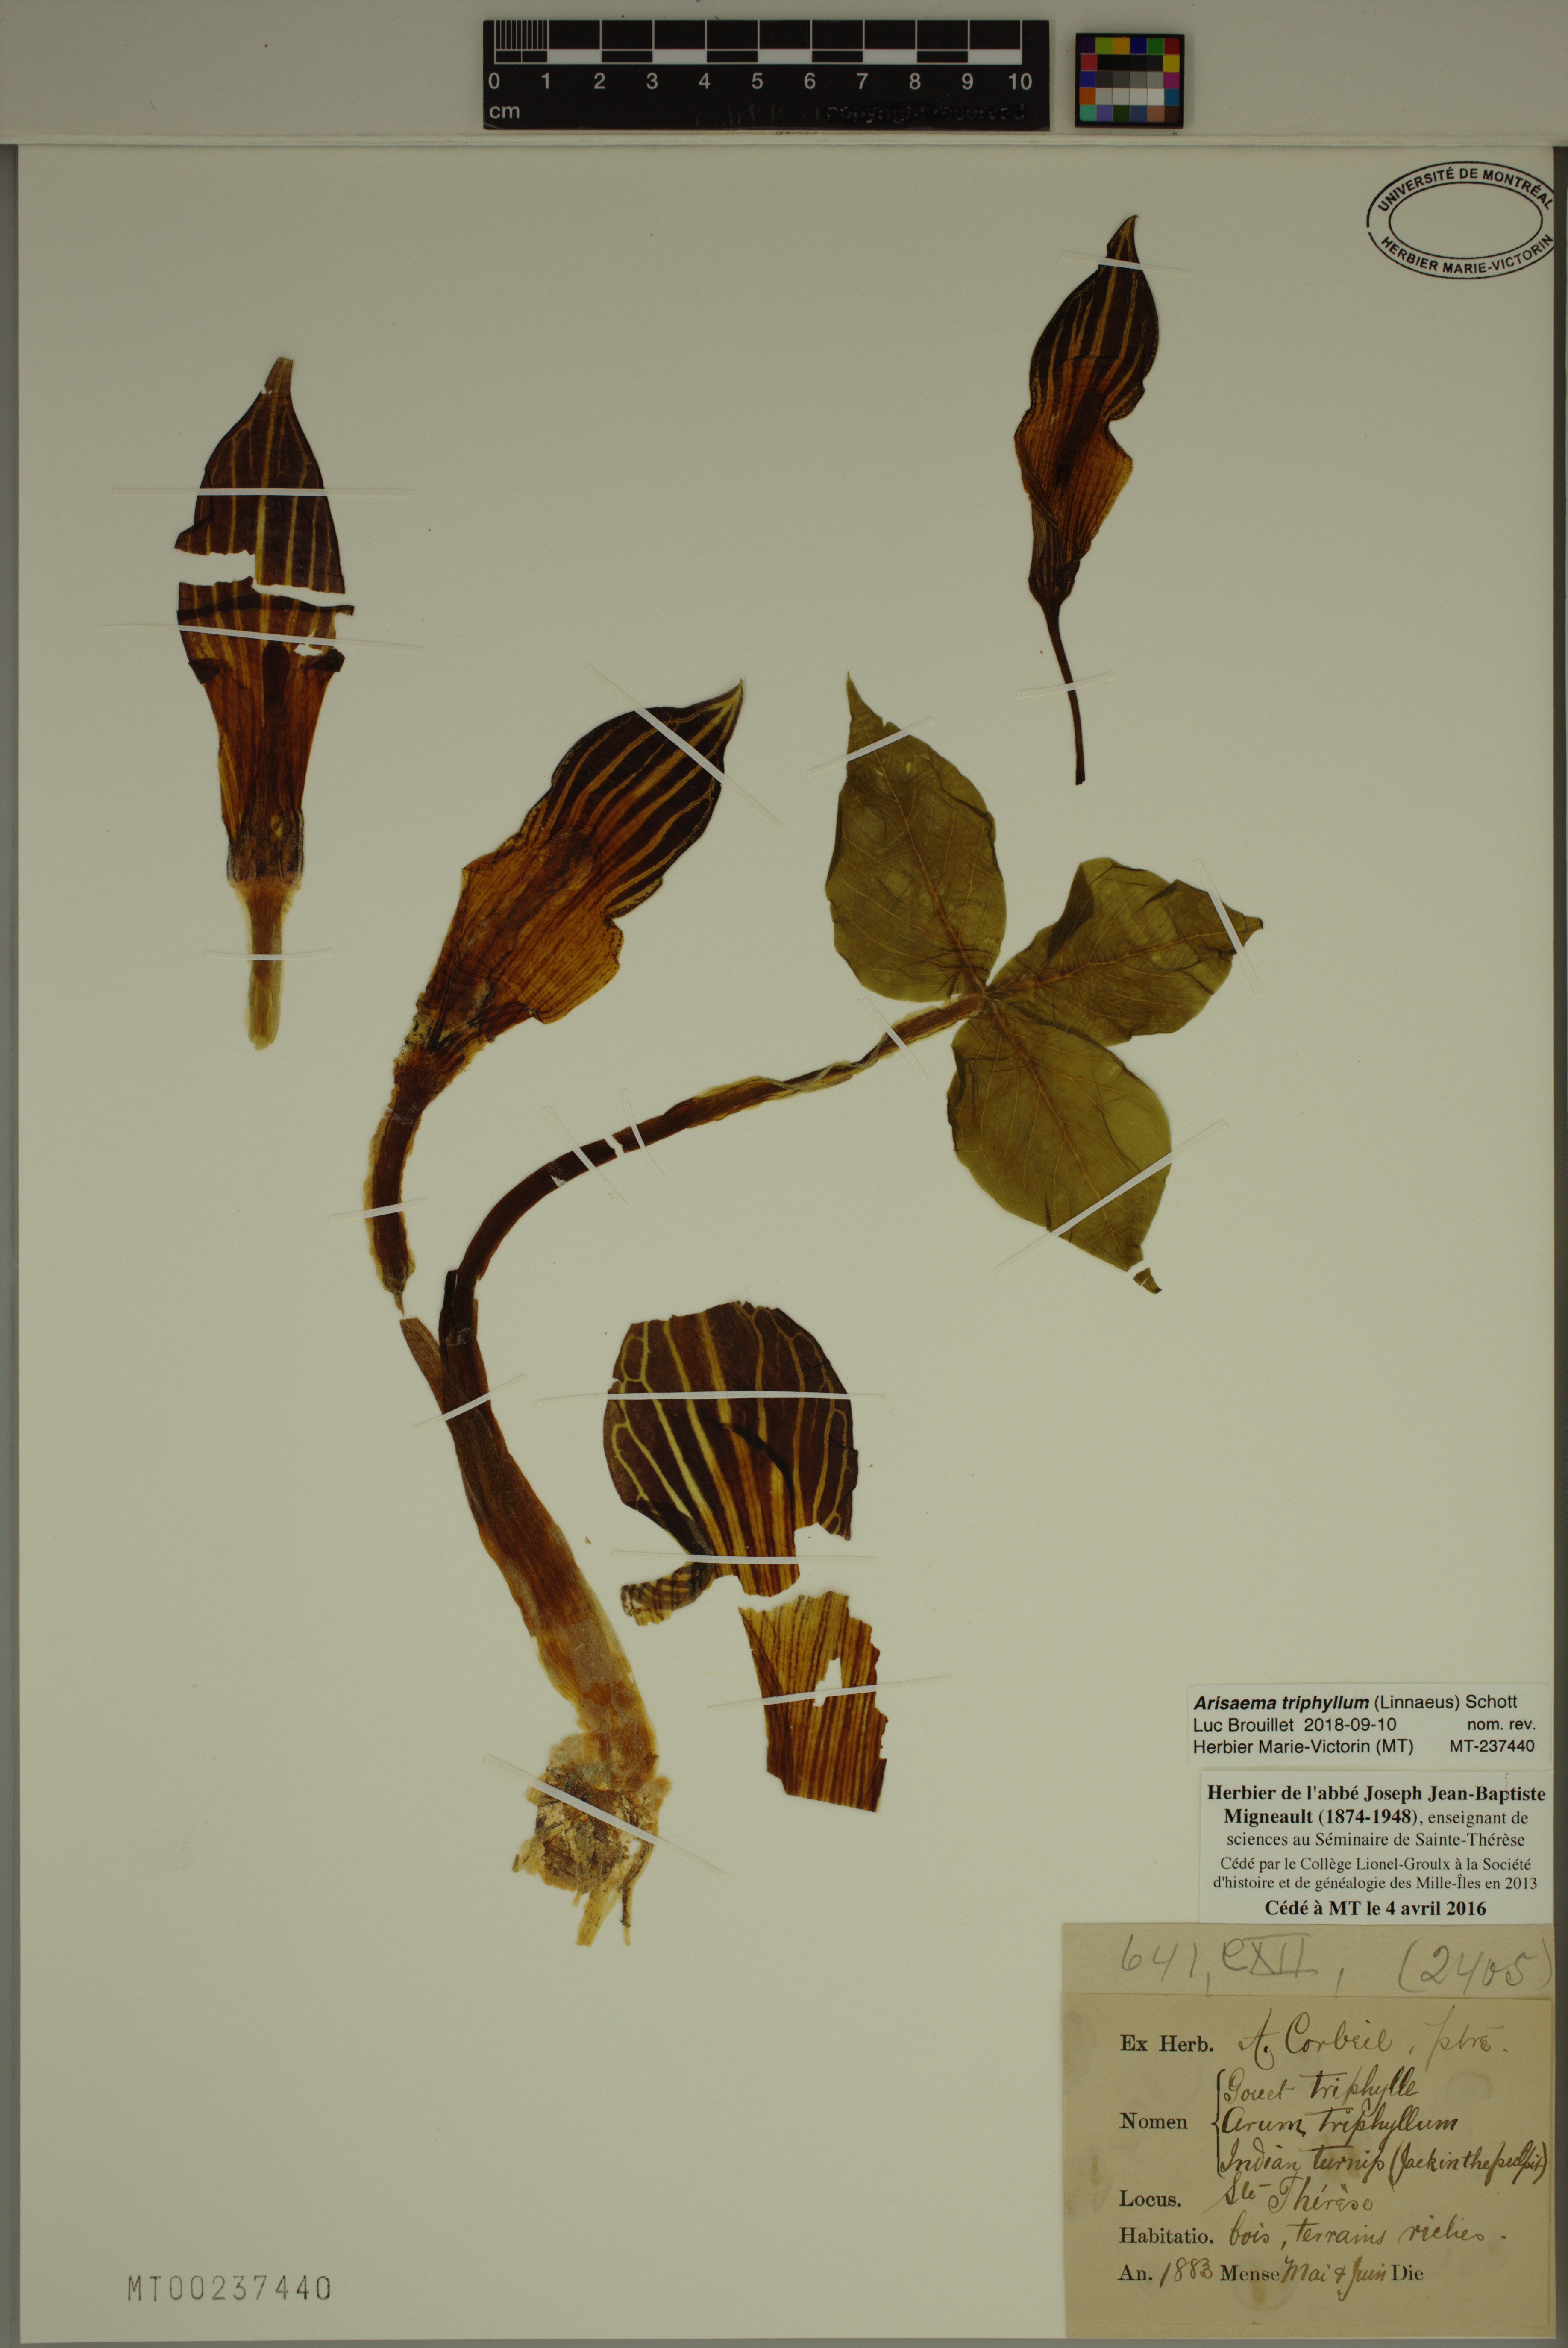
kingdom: Plantae
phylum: Tracheophyta
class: Liliopsida
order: Alismatales
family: Araceae
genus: Arisaema
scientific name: Arisaema triphyllum
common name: Jack-in-the-pulpit
